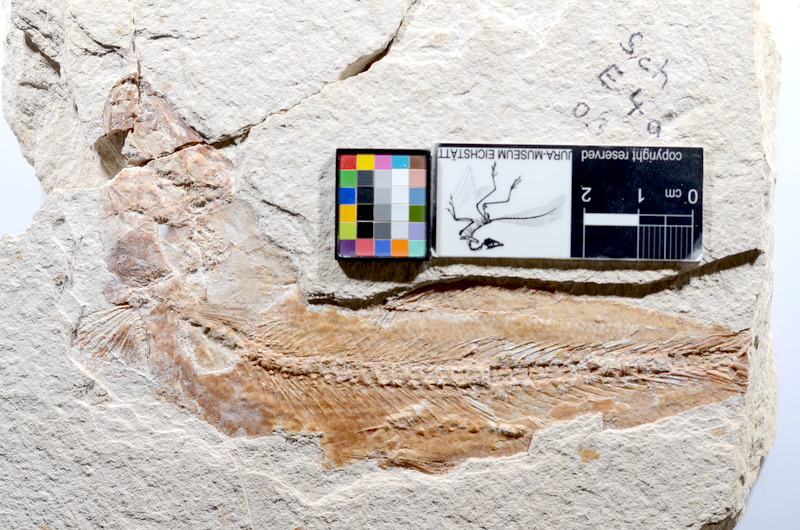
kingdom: Animalia
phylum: Chordata
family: Ascalaboidae
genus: Tharsis
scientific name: Tharsis dubius
